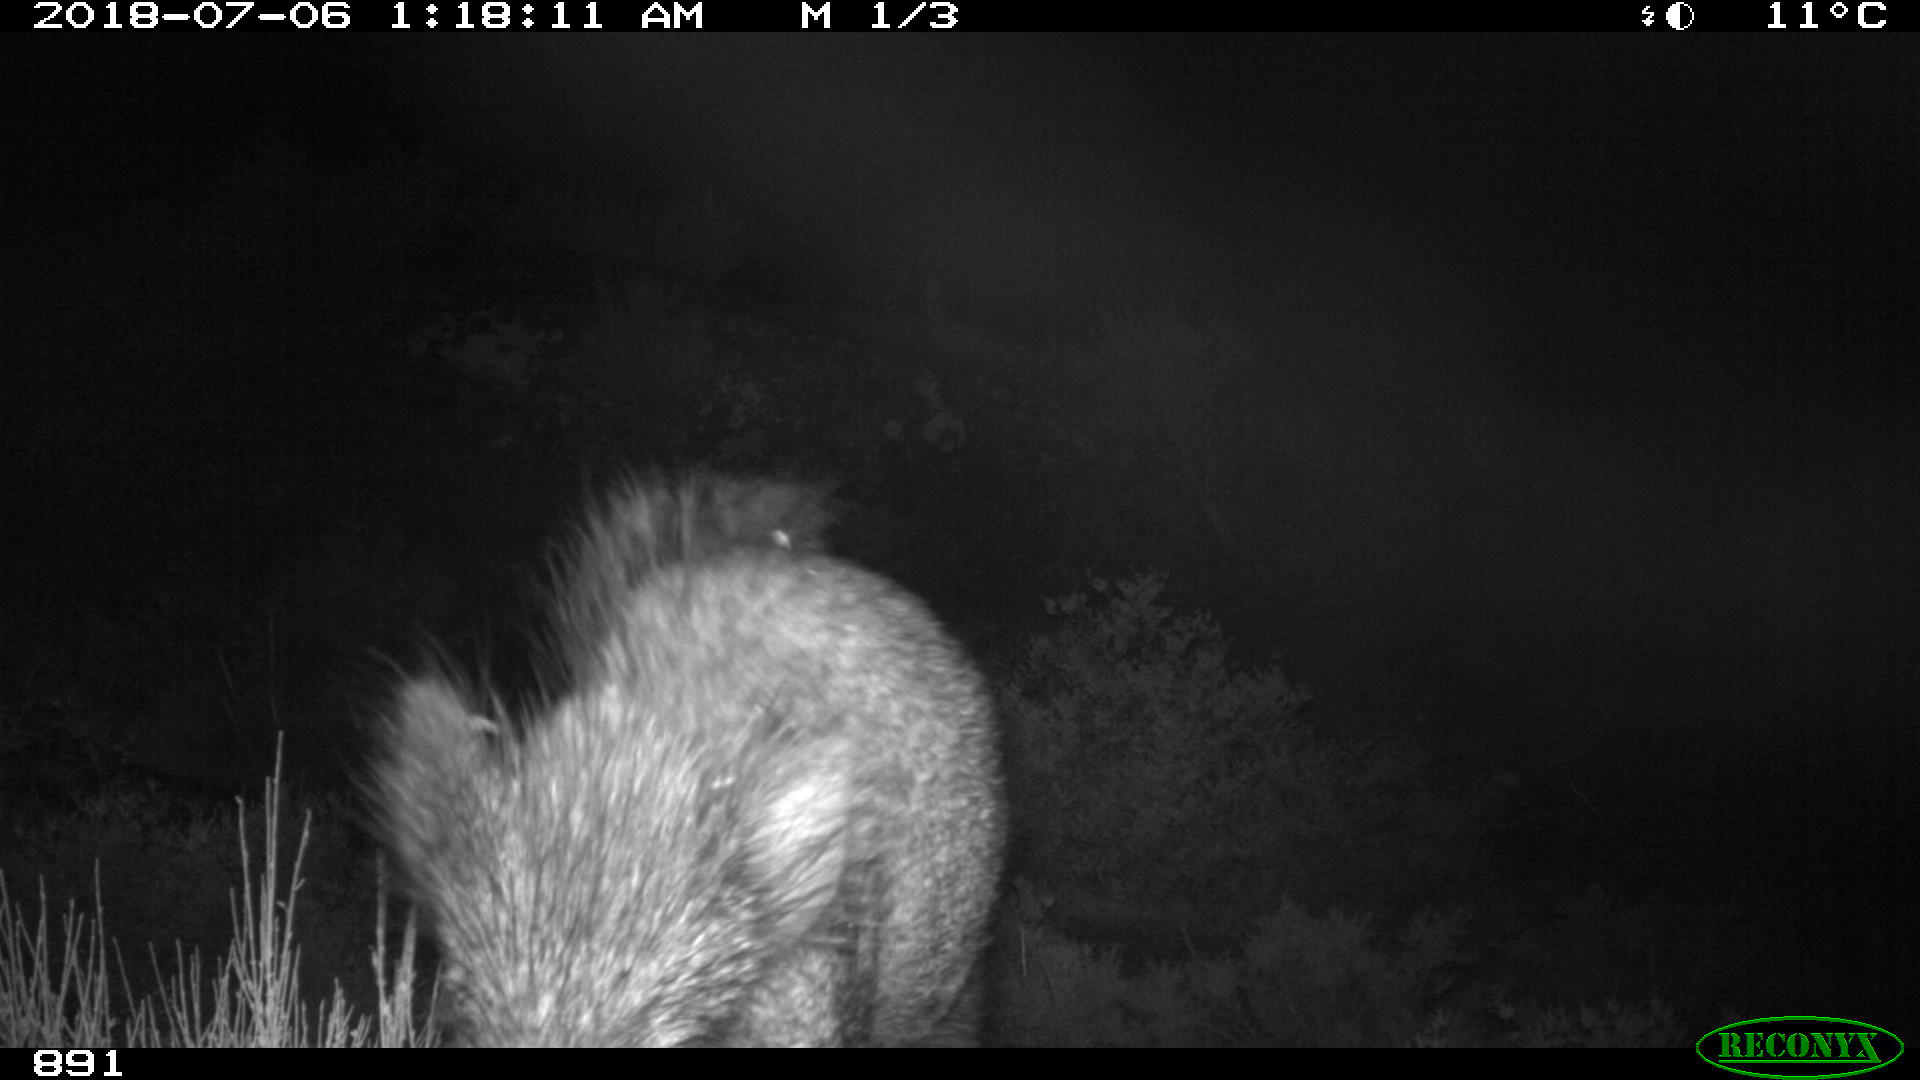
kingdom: Animalia
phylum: Chordata
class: Mammalia
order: Artiodactyla
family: Suidae
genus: Sus
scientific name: Sus scrofa
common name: Wild boar
